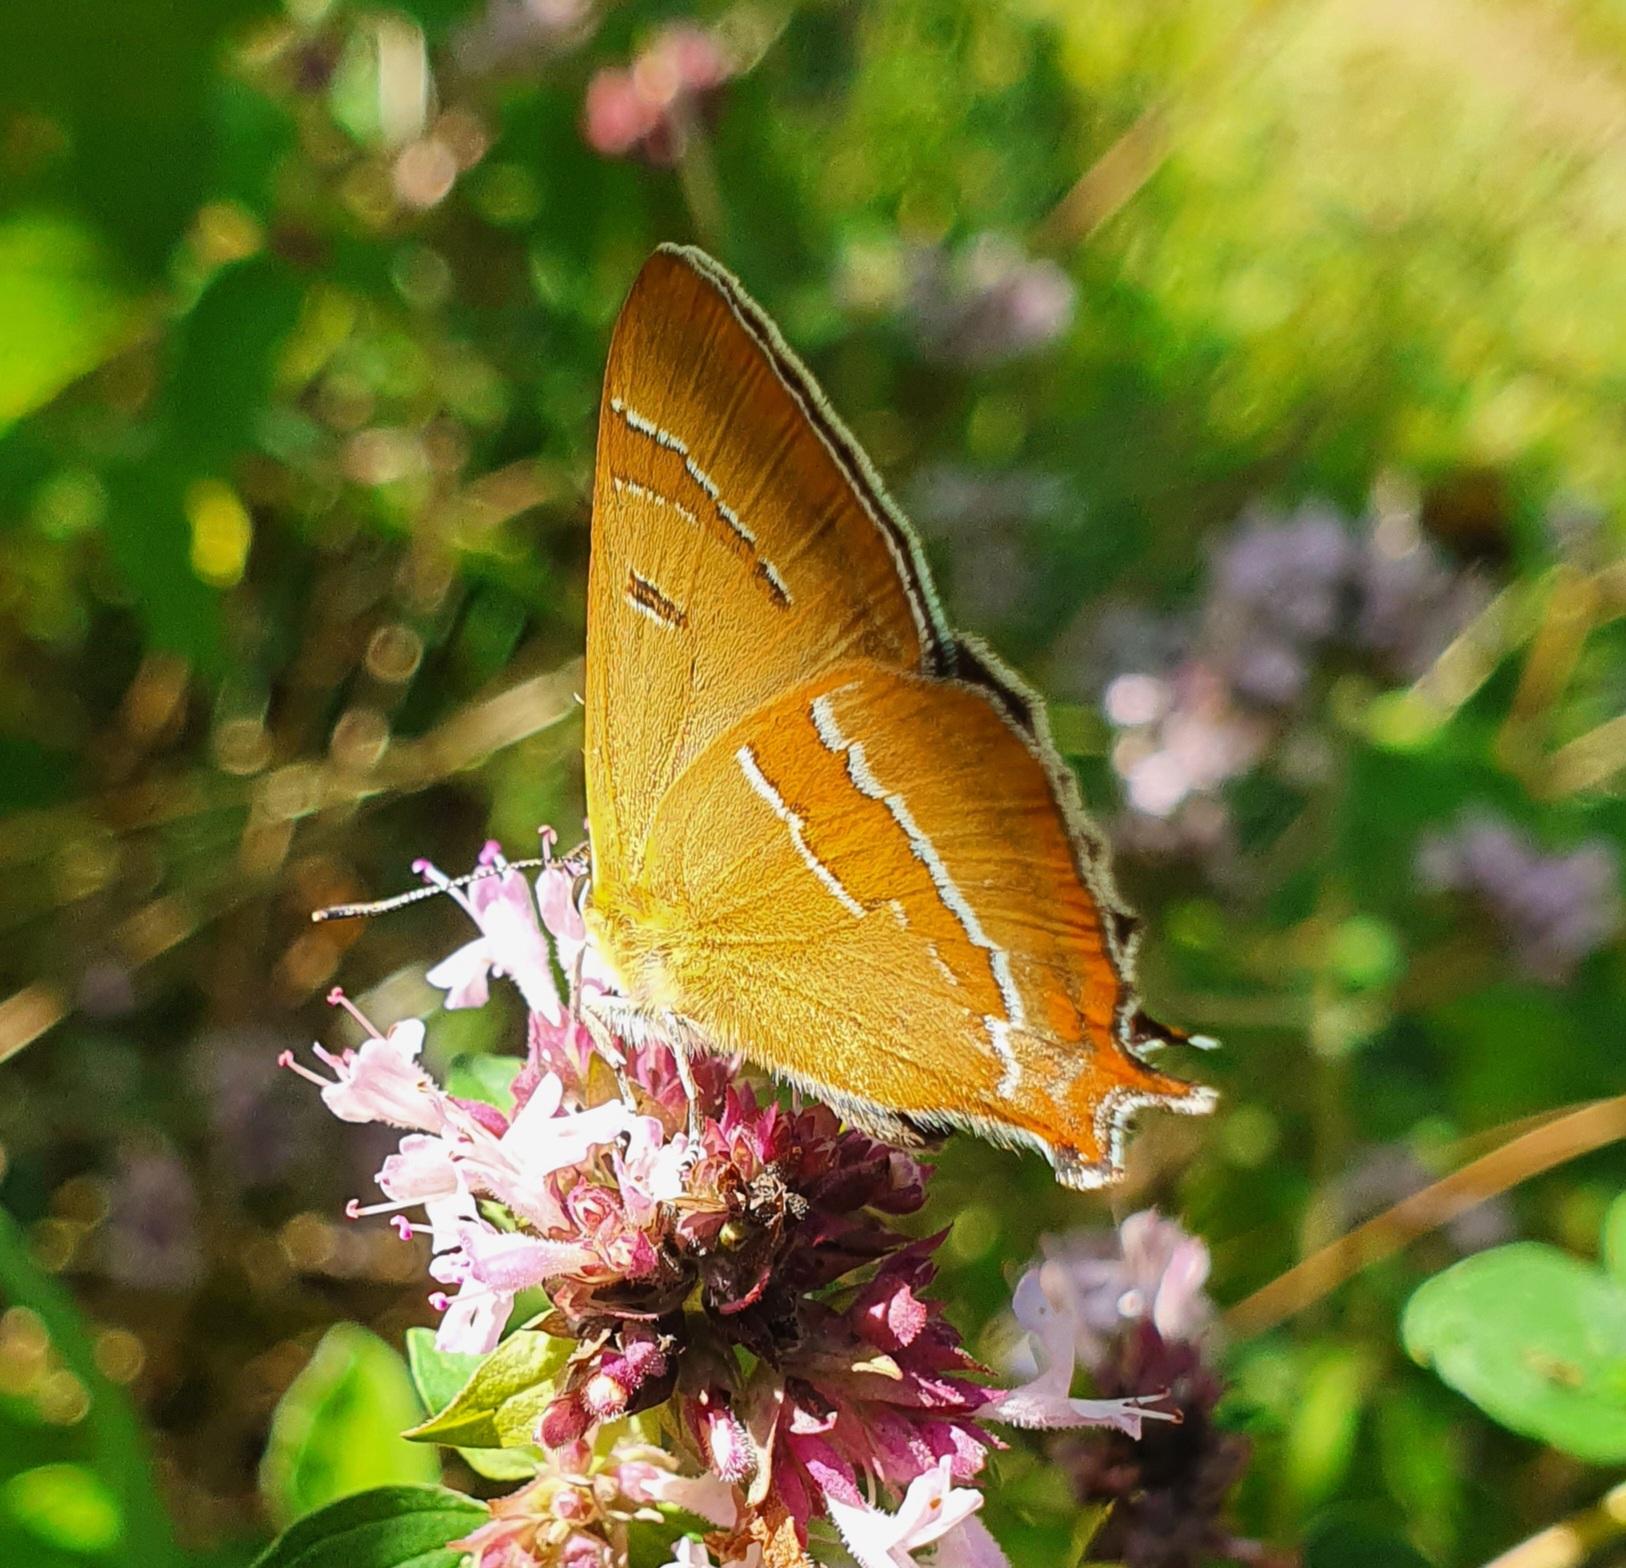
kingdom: Animalia
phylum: Arthropoda
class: Insecta
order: Lepidoptera
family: Lycaenidae
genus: Thecla
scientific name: Thecla betulae
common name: Guldhale
